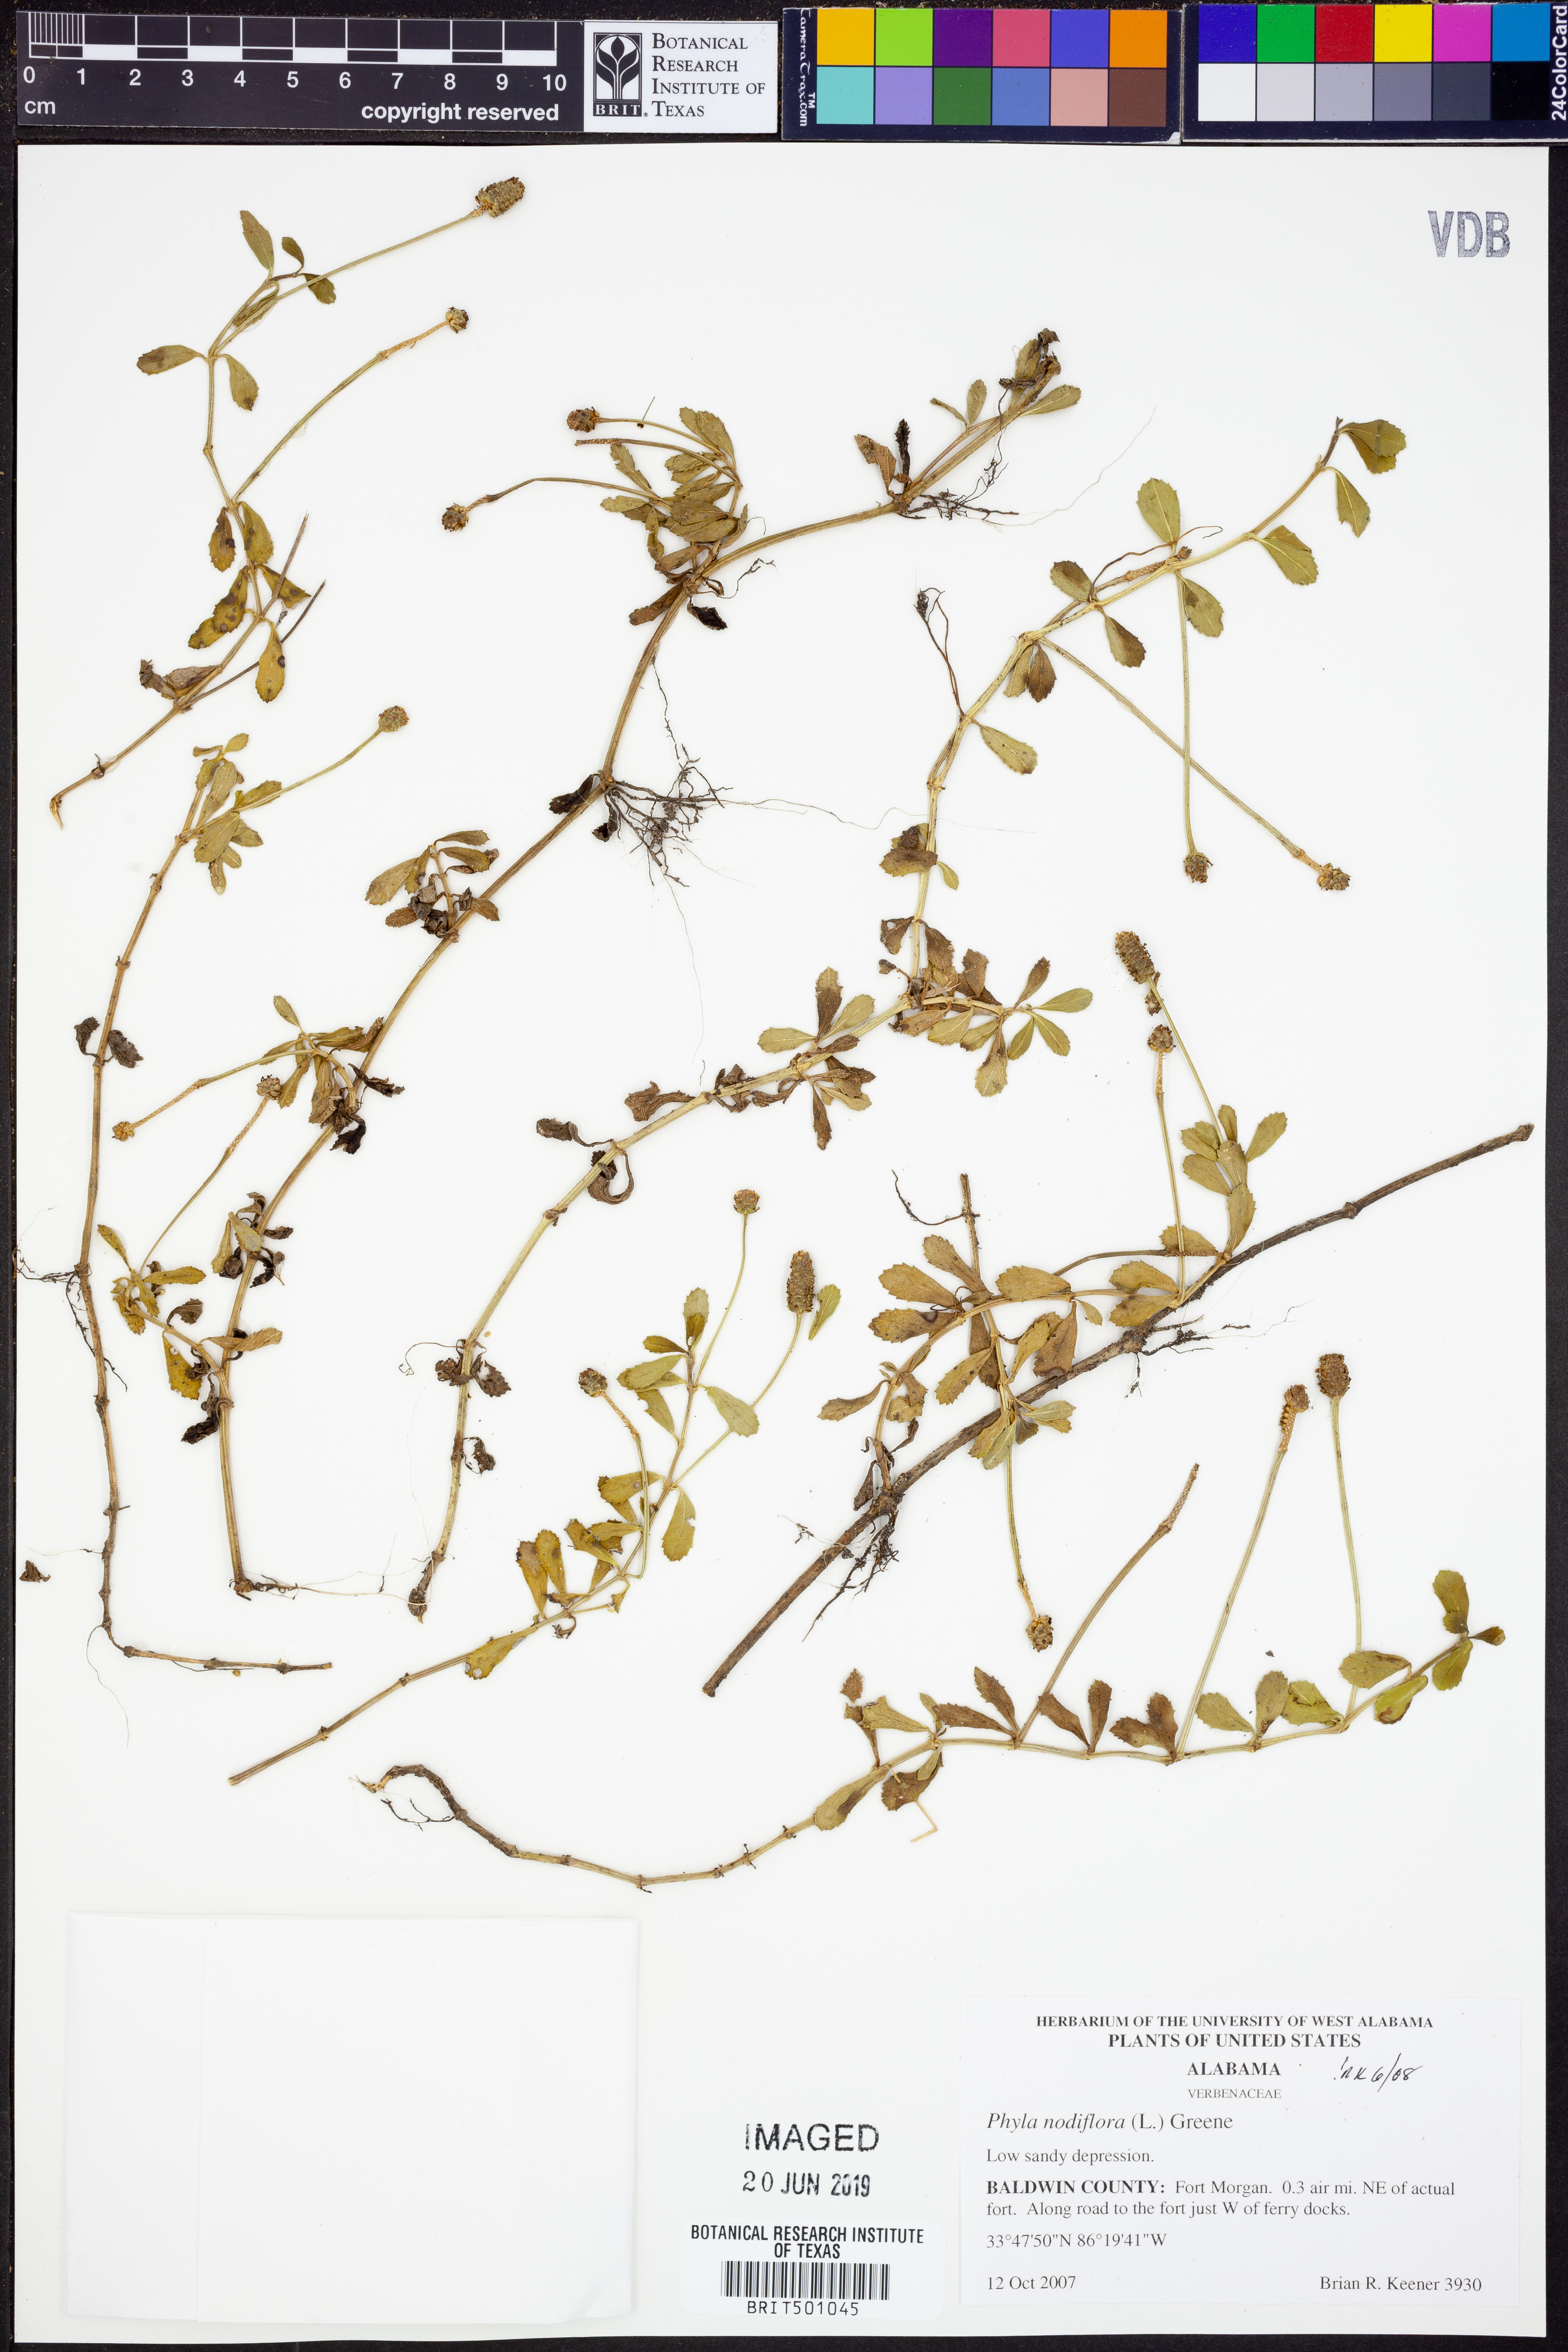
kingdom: Plantae
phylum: Tracheophyta
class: Magnoliopsida
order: Lamiales
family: Verbenaceae
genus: Phyla
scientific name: Phyla nodiflora
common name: Frogfruit
